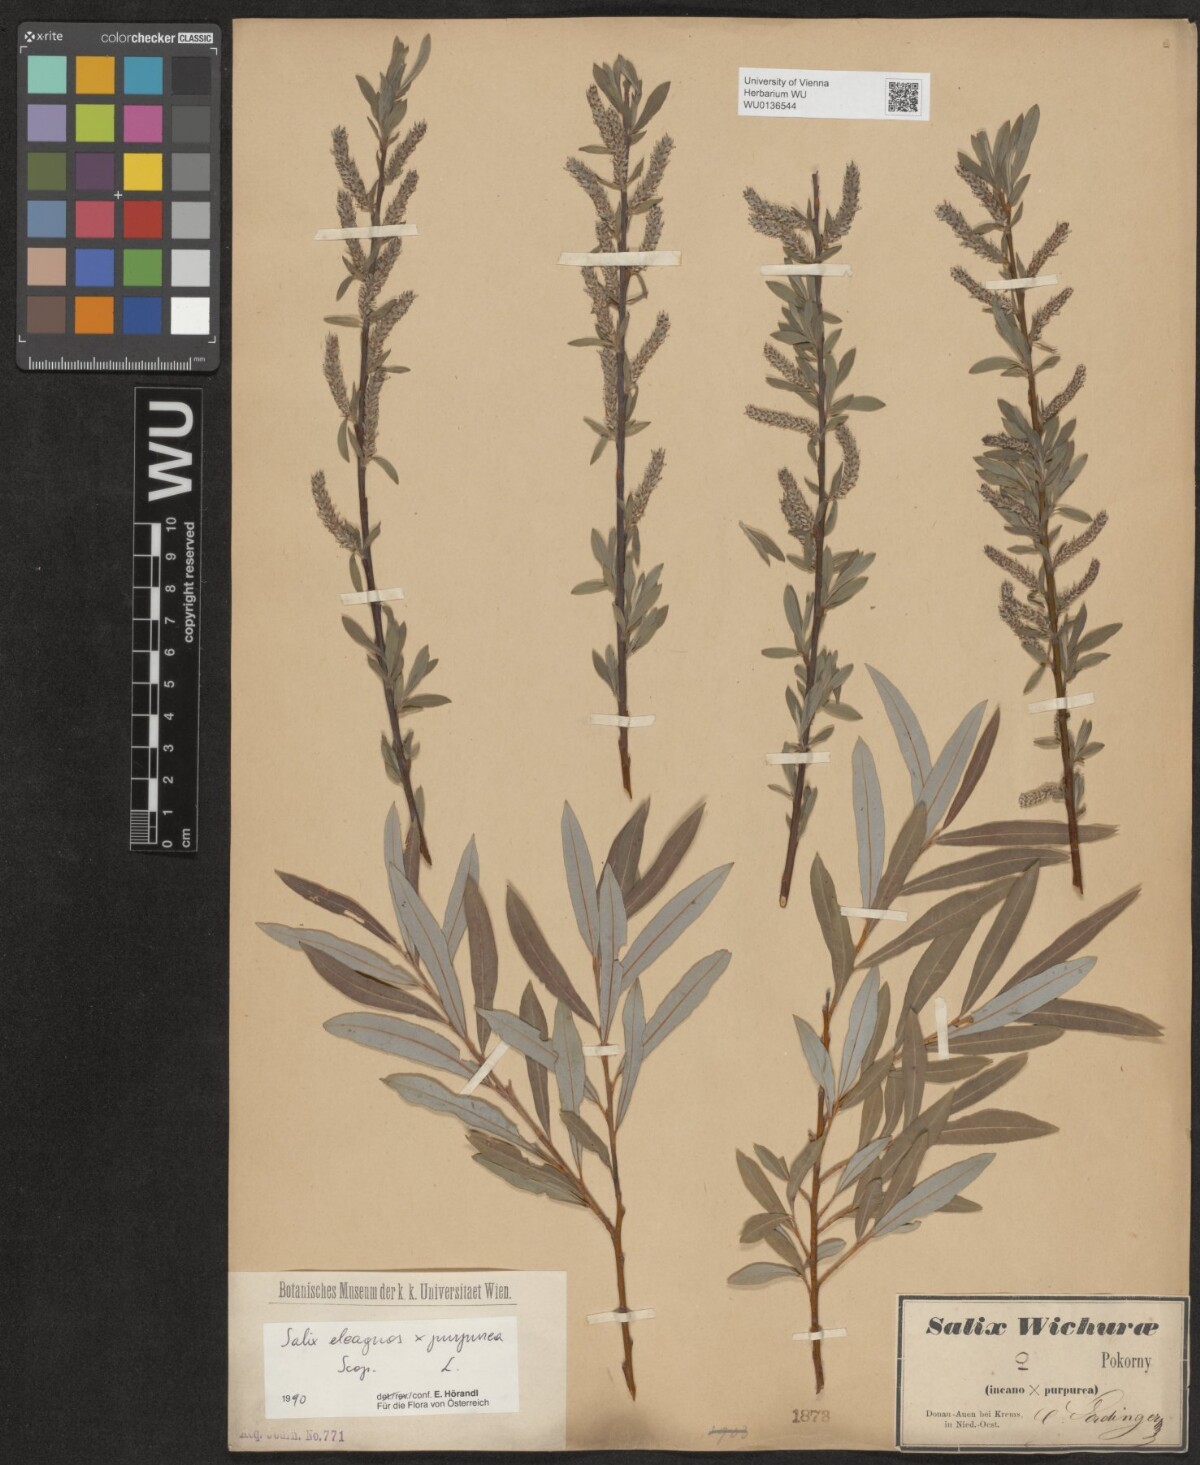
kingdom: Plantae
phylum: Tracheophyta
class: Magnoliopsida
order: Malpighiales
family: Salicaceae
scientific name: Salicaceae
